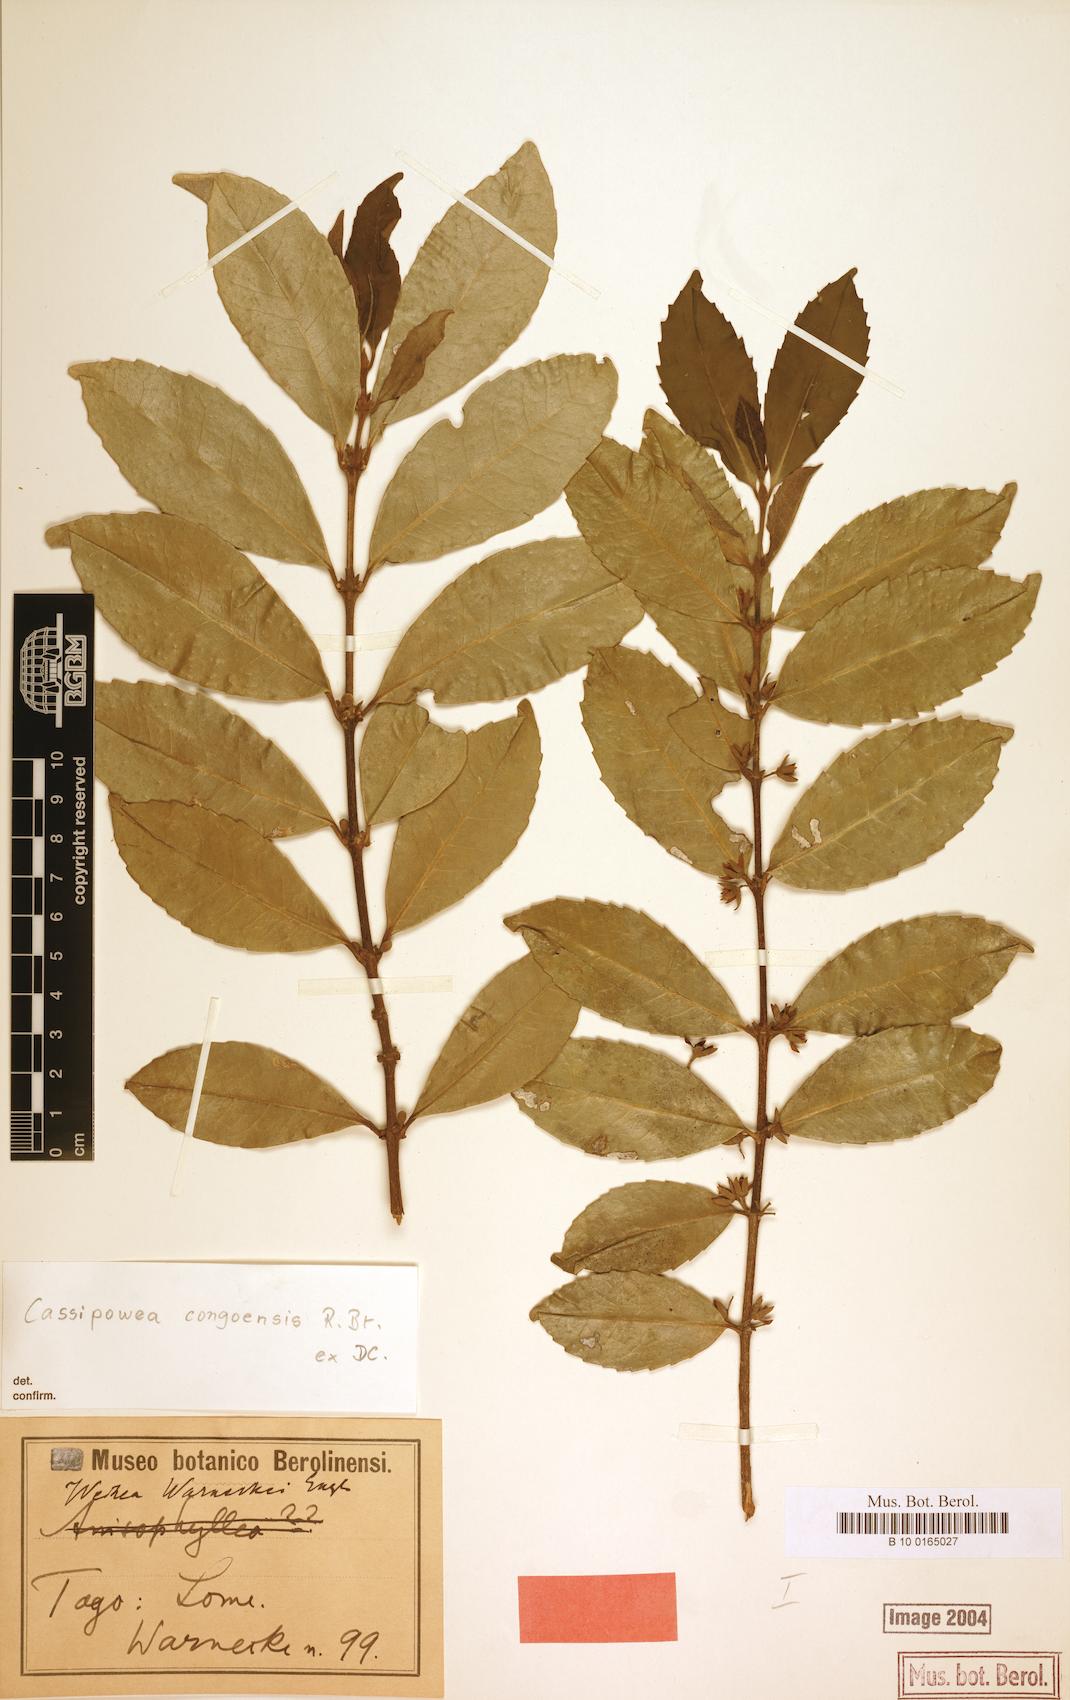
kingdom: Plantae
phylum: Tracheophyta
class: Magnoliopsida
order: Malpighiales
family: Rhizophoraceae
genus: Cassipourea
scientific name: Cassipourea congoensis
